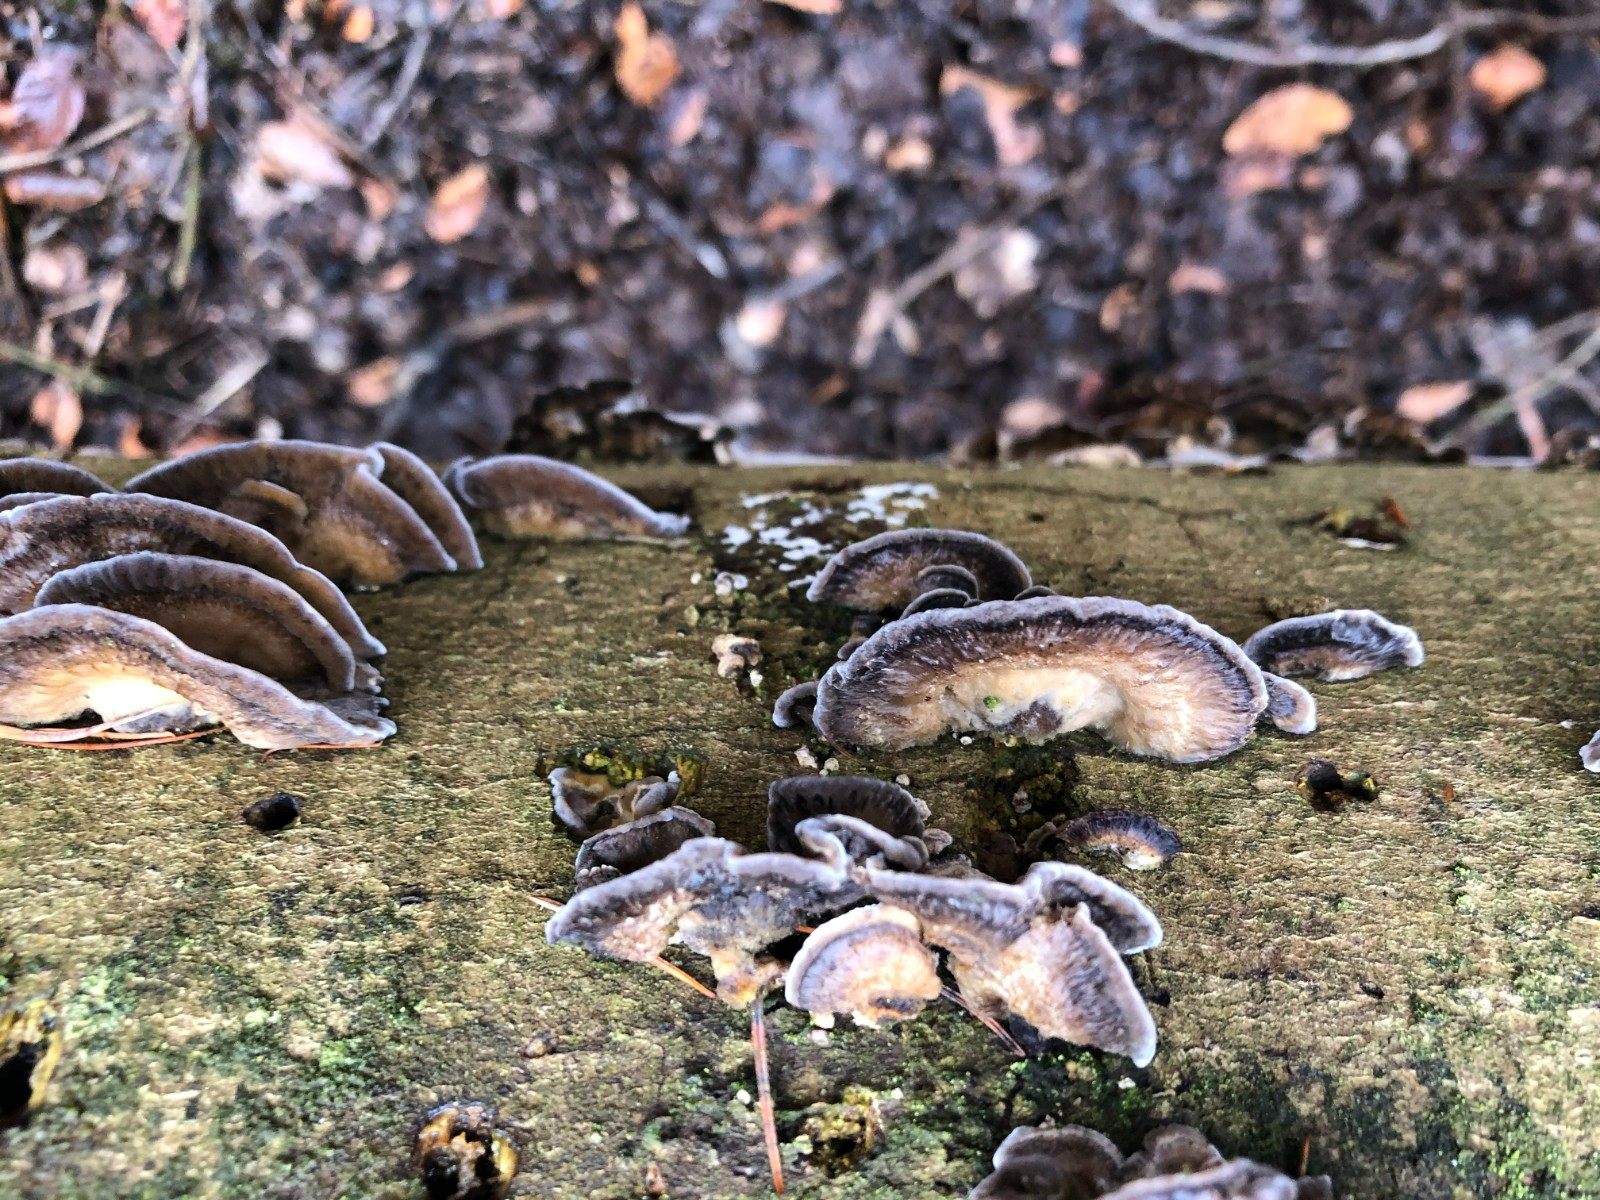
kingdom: Fungi
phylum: Basidiomycota
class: Agaricomycetes
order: Polyporales
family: Phanerochaetaceae
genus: Bjerkandera
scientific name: Bjerkandera adusta
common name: sveden sodporesvamp
